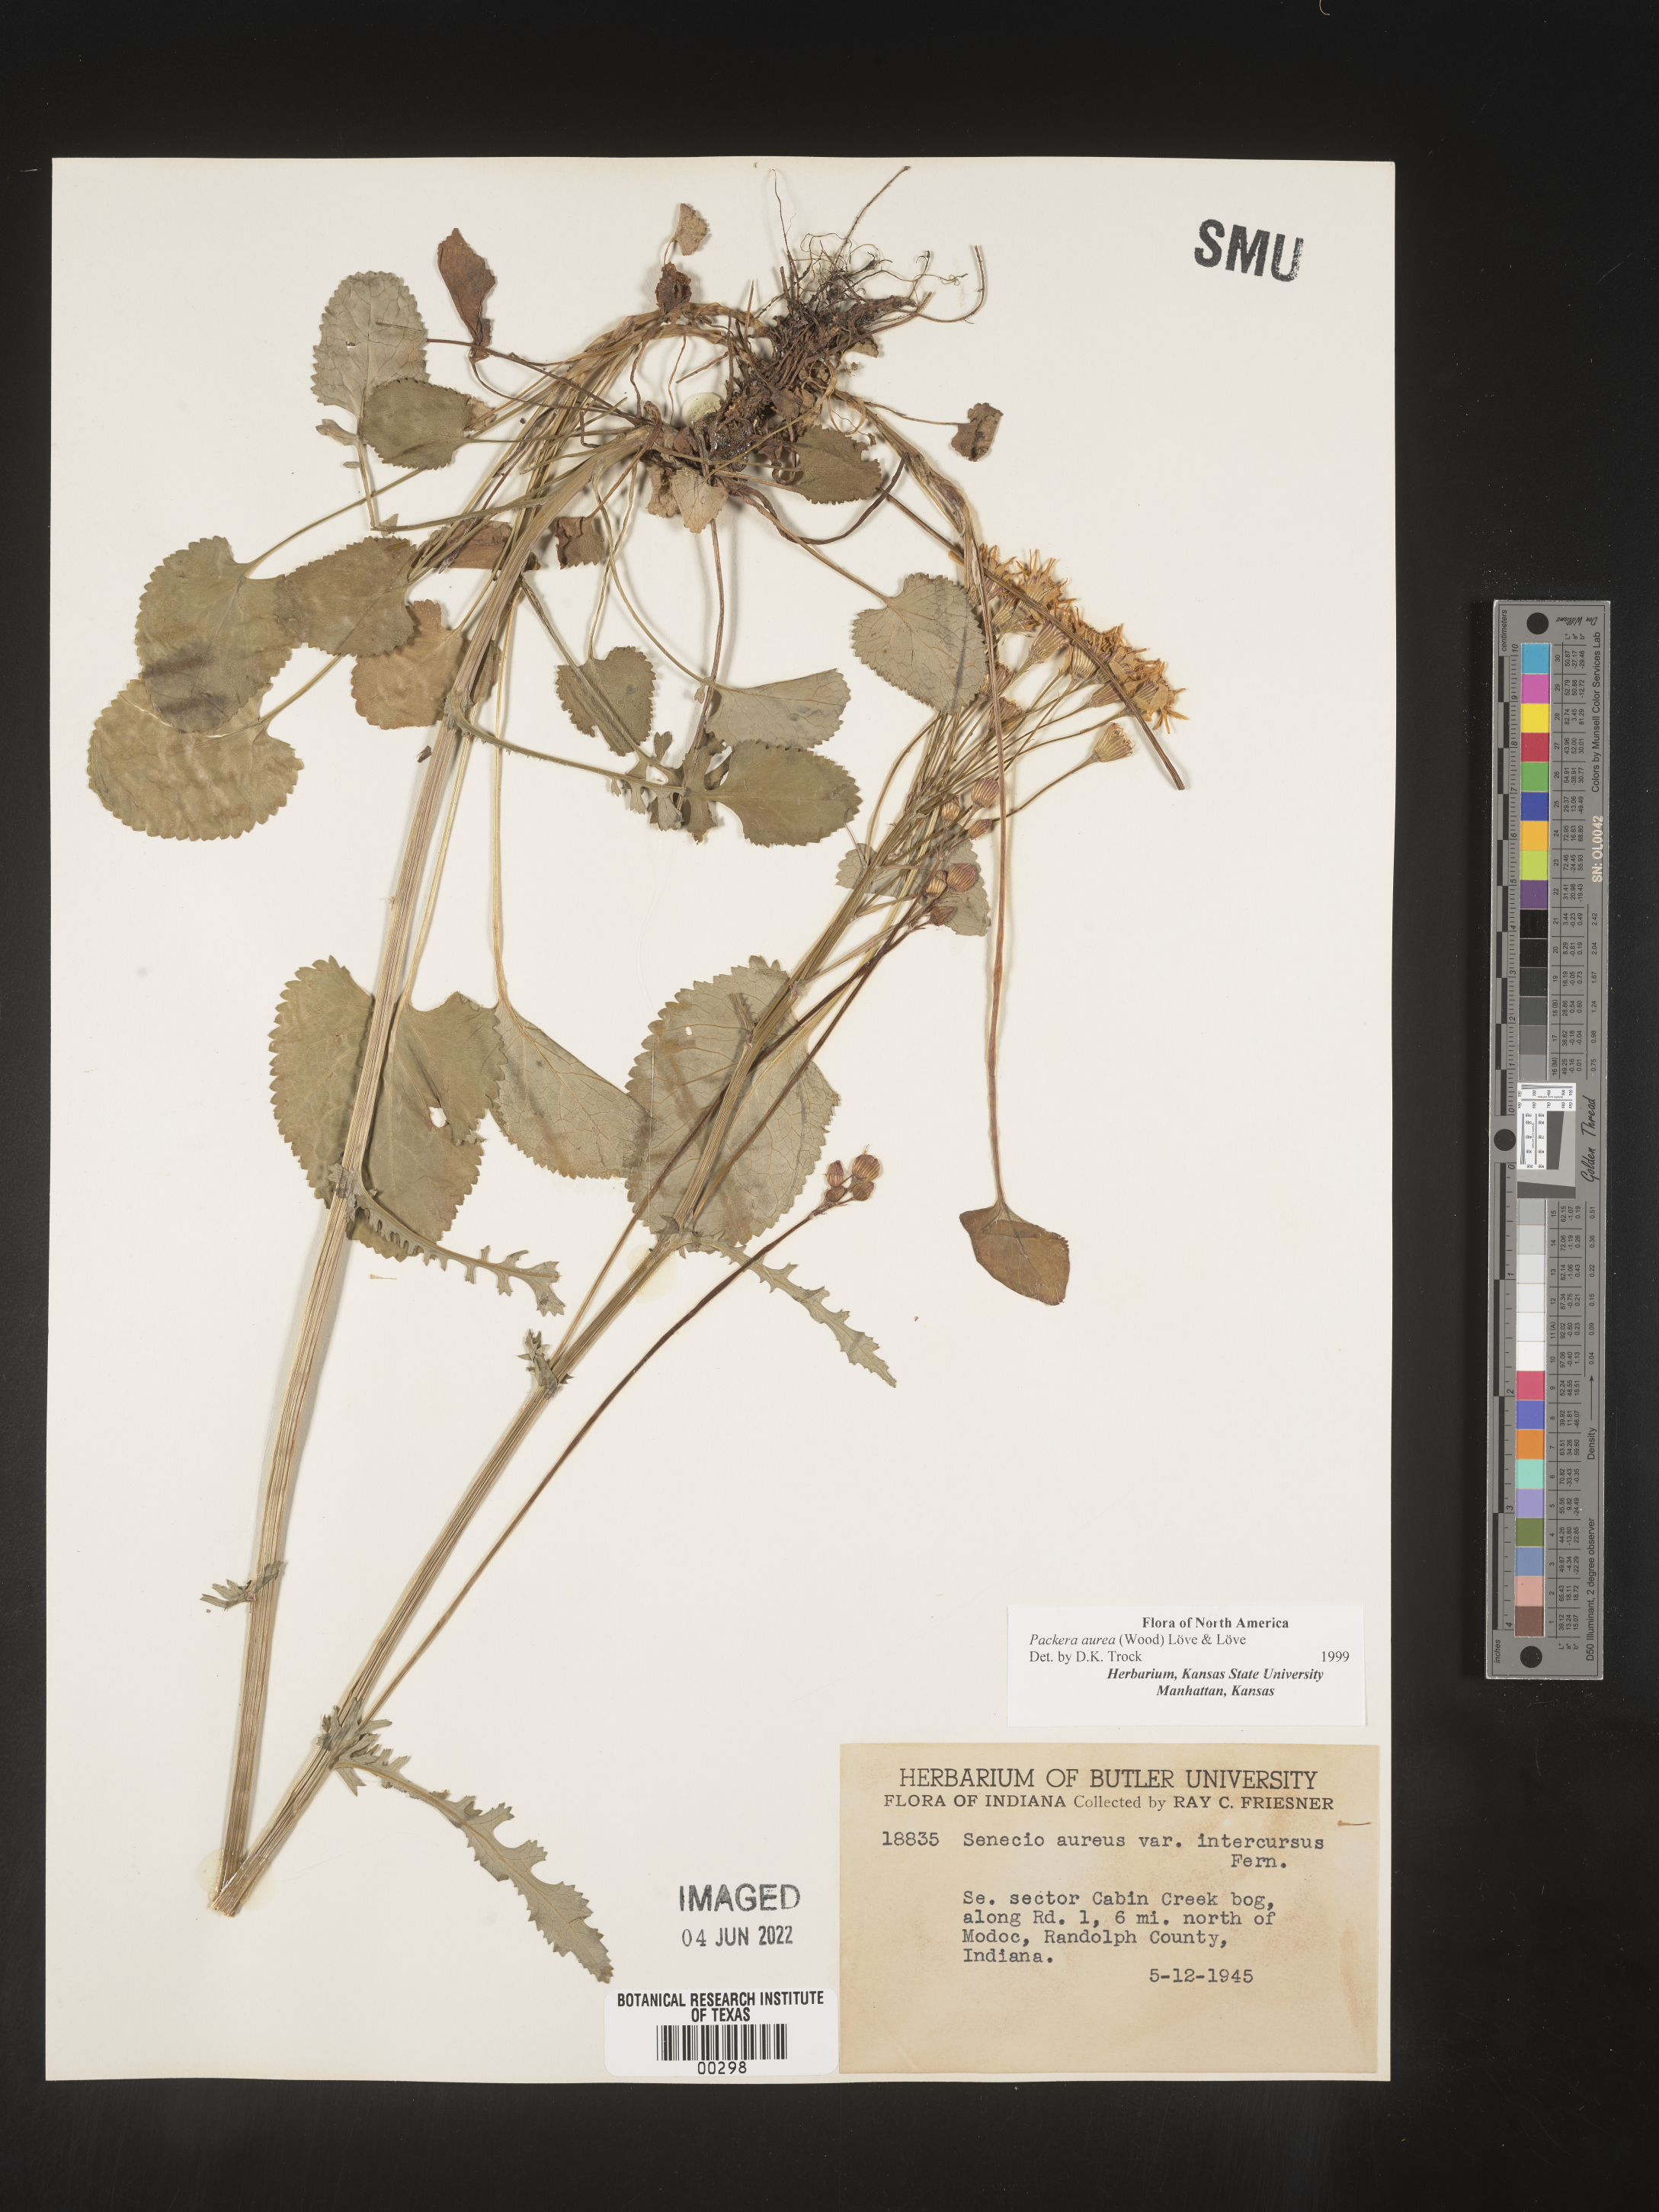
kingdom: Plantae
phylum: Tracheophyta
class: Magnoliopsida
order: Asterales
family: Asteraceae
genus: Packera
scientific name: Packera aurea
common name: Golden groundsel
